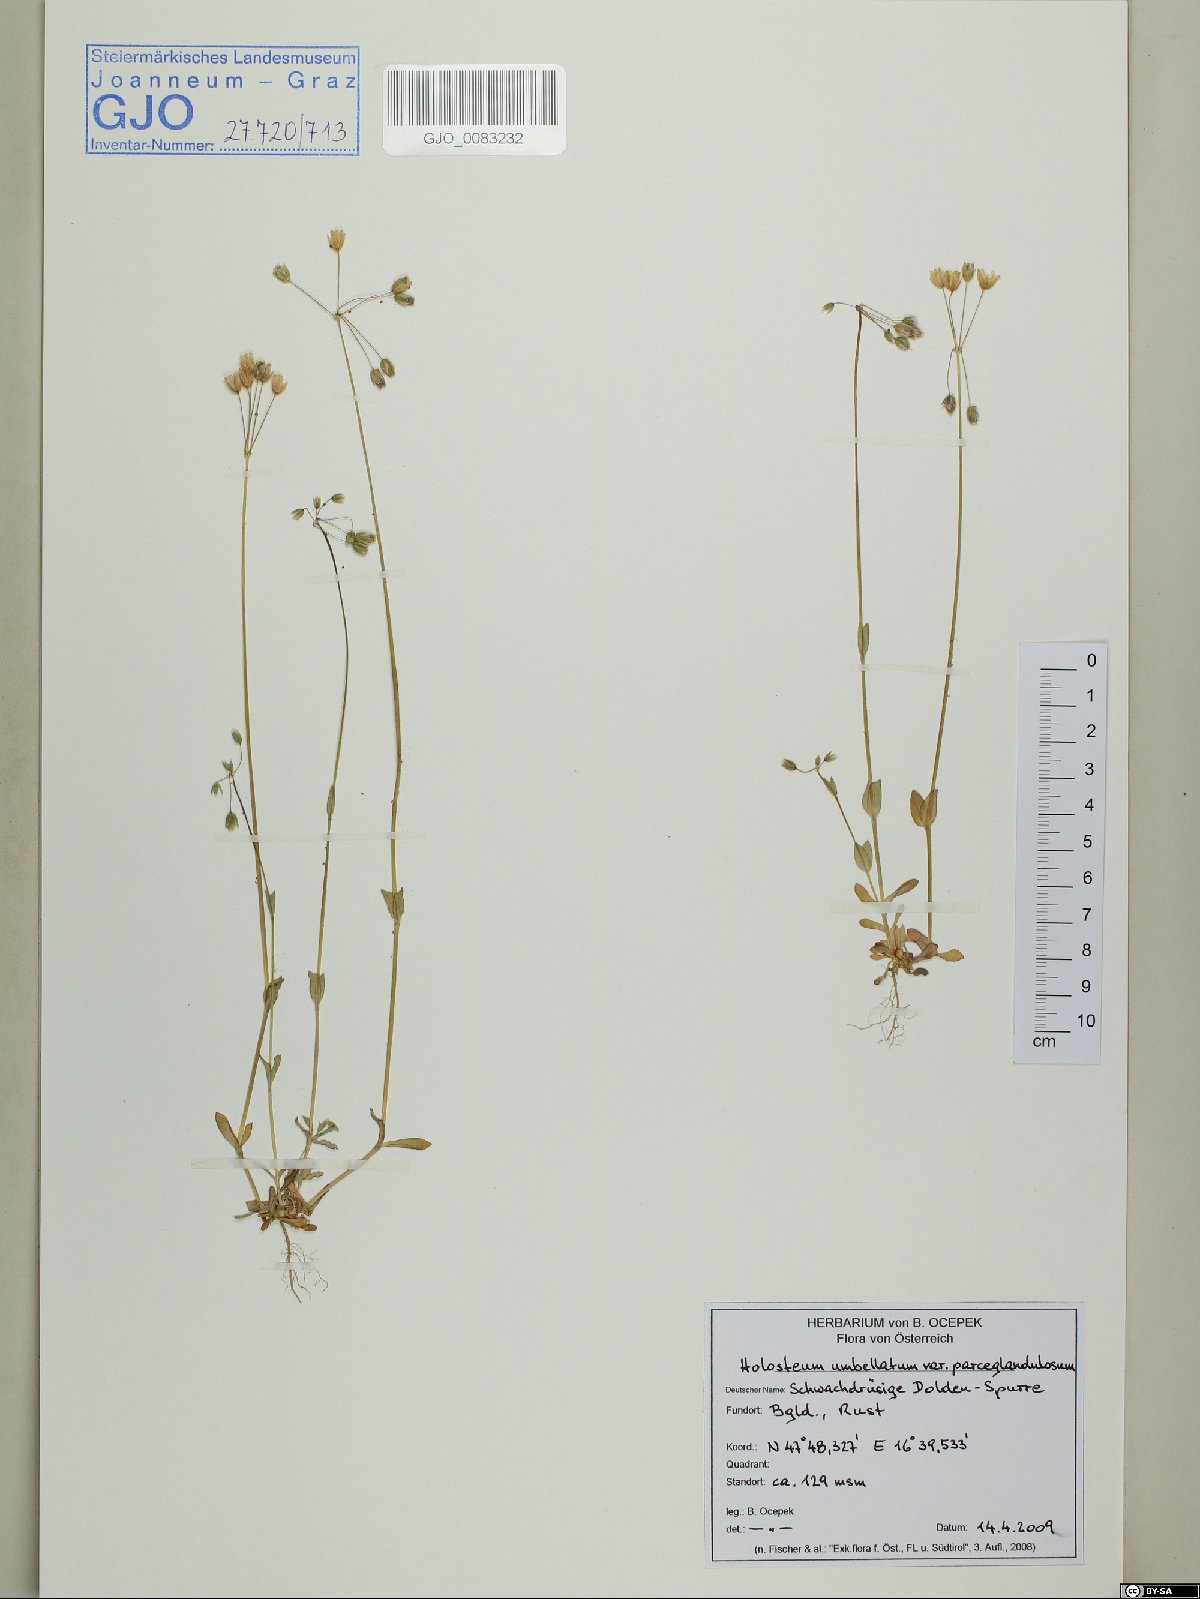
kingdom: Plantae
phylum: Tracheophyta
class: Magnoliopsida
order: Caryophyllales
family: Caryophyllaceae
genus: Holosteum
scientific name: Holosteum umbellatum
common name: Jagged chickweed
